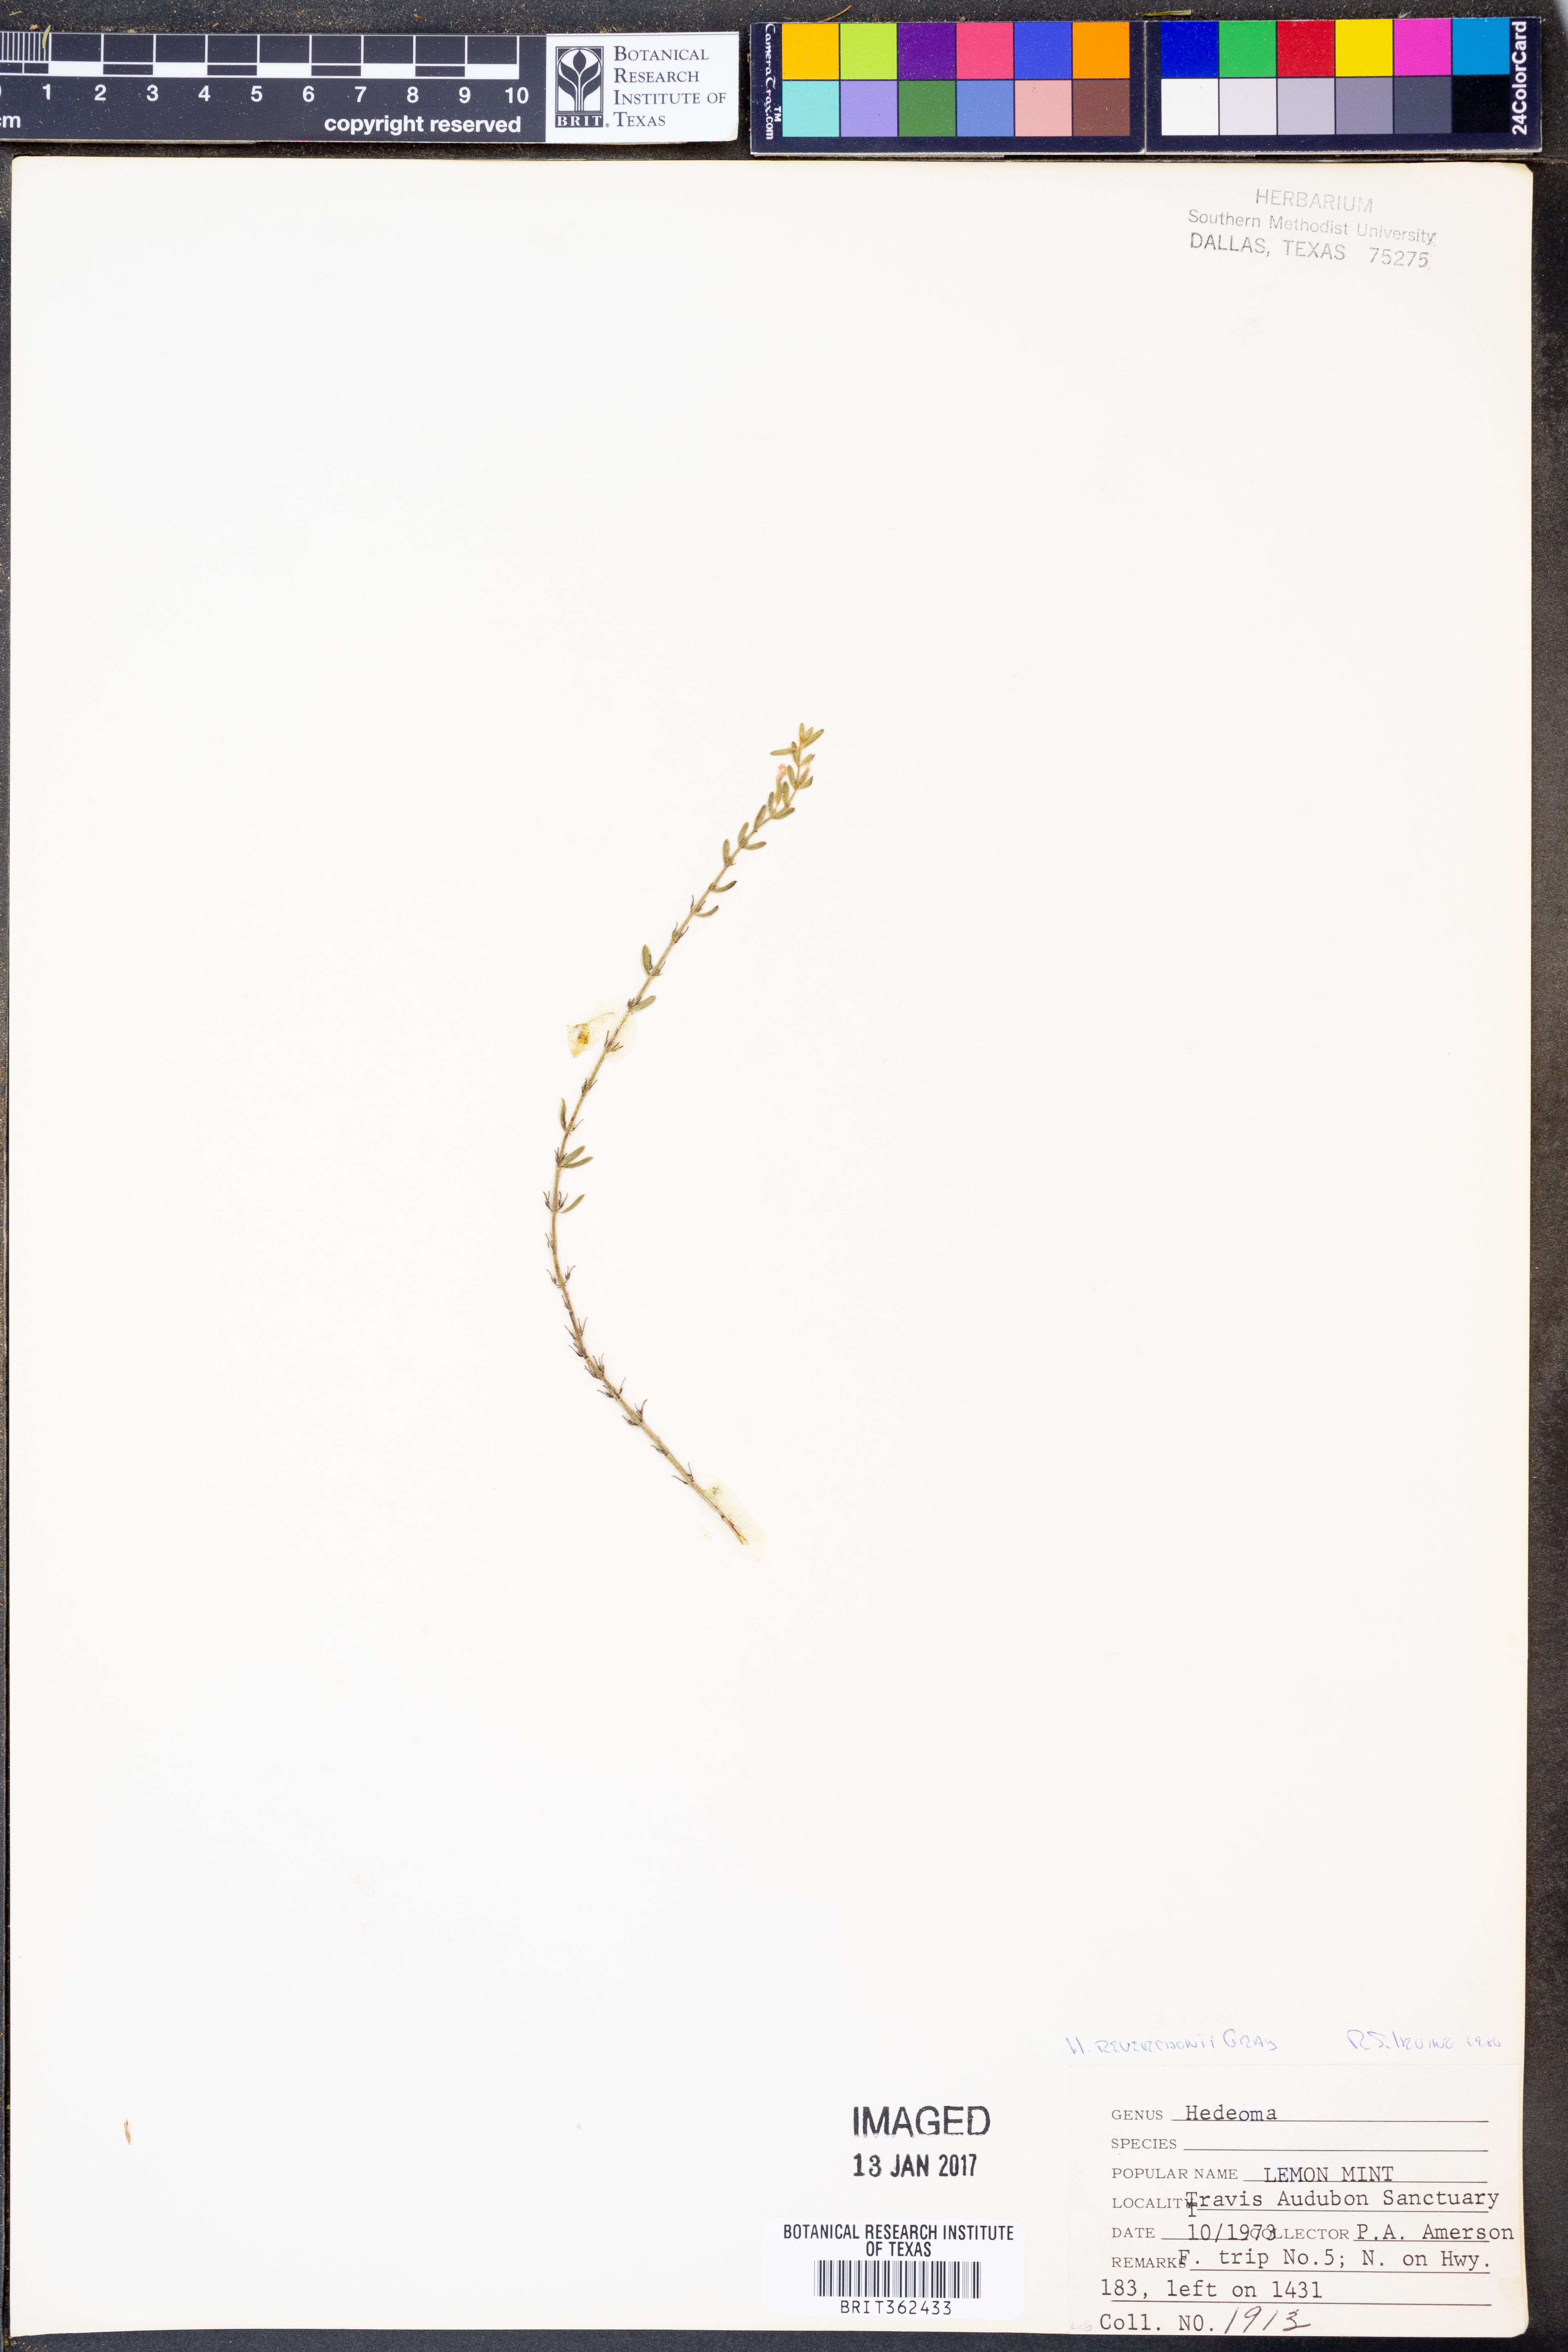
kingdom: Plantae
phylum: Tracheophyta
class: Magnoliopsida
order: Lamiales
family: Lamiaceae
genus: Hedeoma
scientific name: Hedeoma reverchonii
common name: Reverchon's false penny-royal
